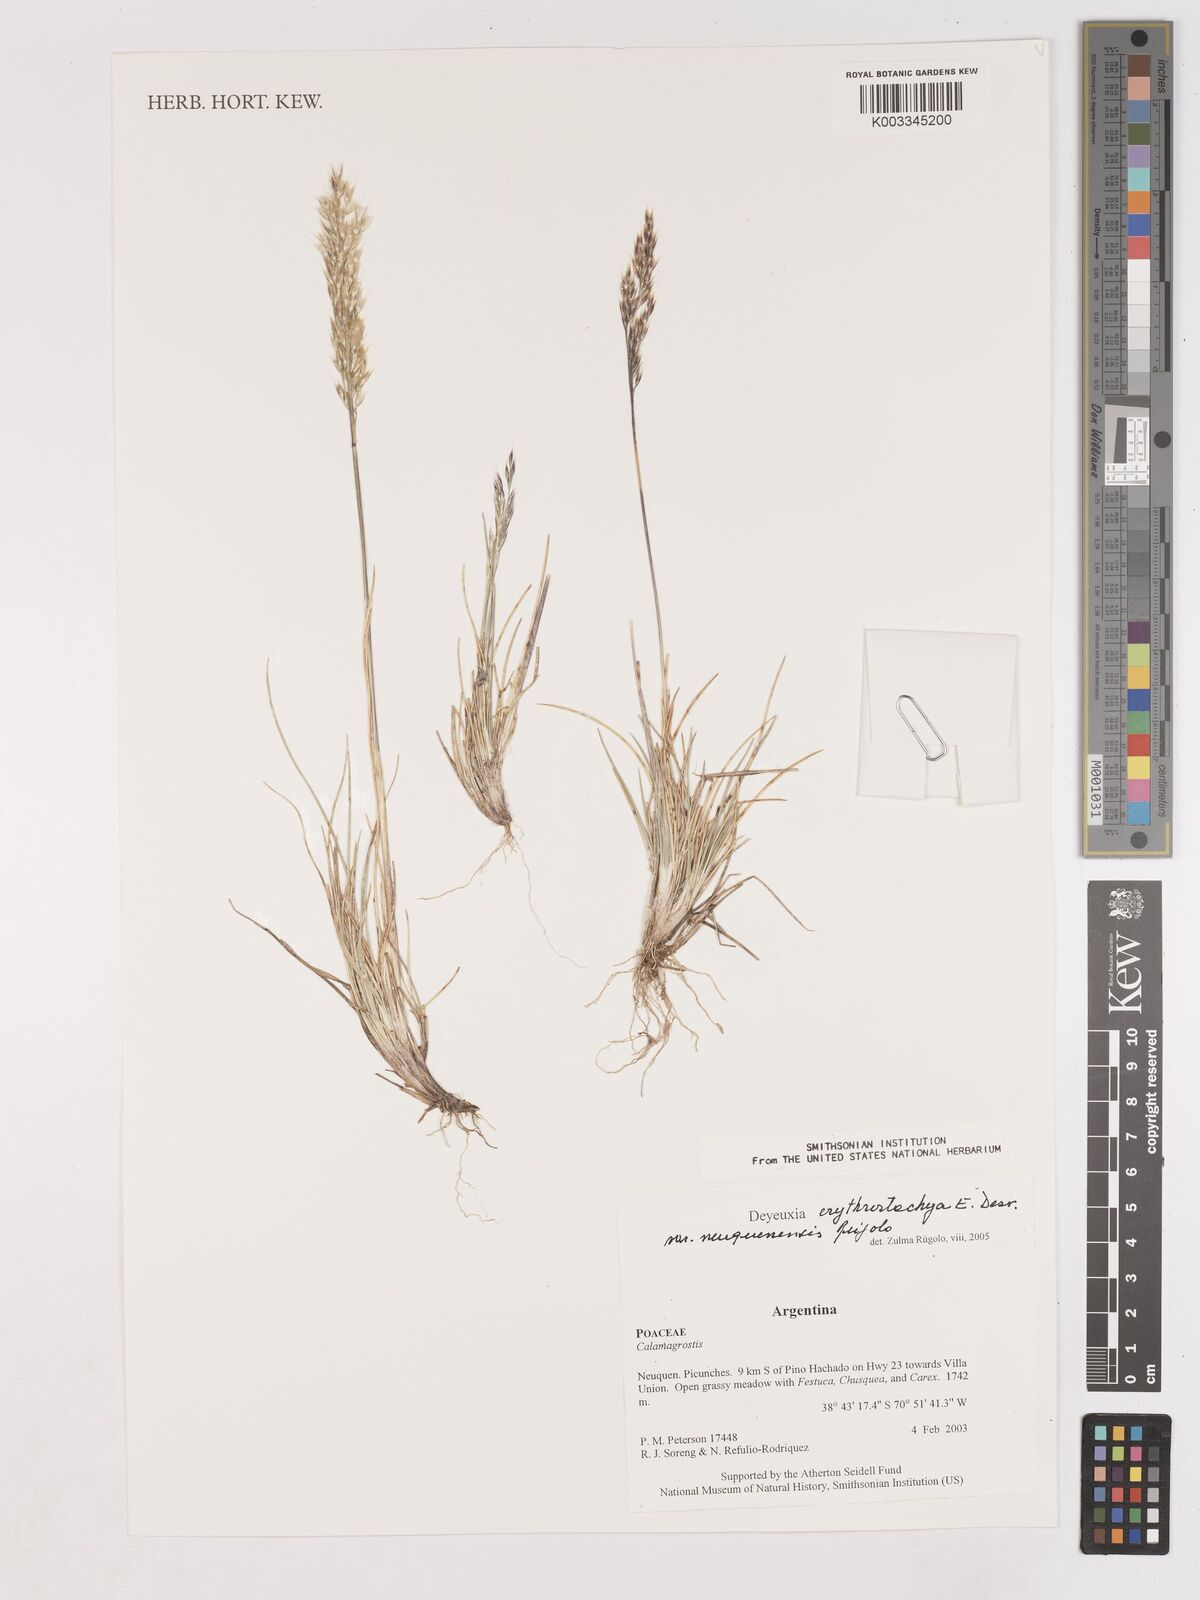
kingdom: Plantae
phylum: Tracheophyta
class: Liliopsida
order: Poales
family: Poaceae
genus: Calamagrostis
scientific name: Calamagrostis
